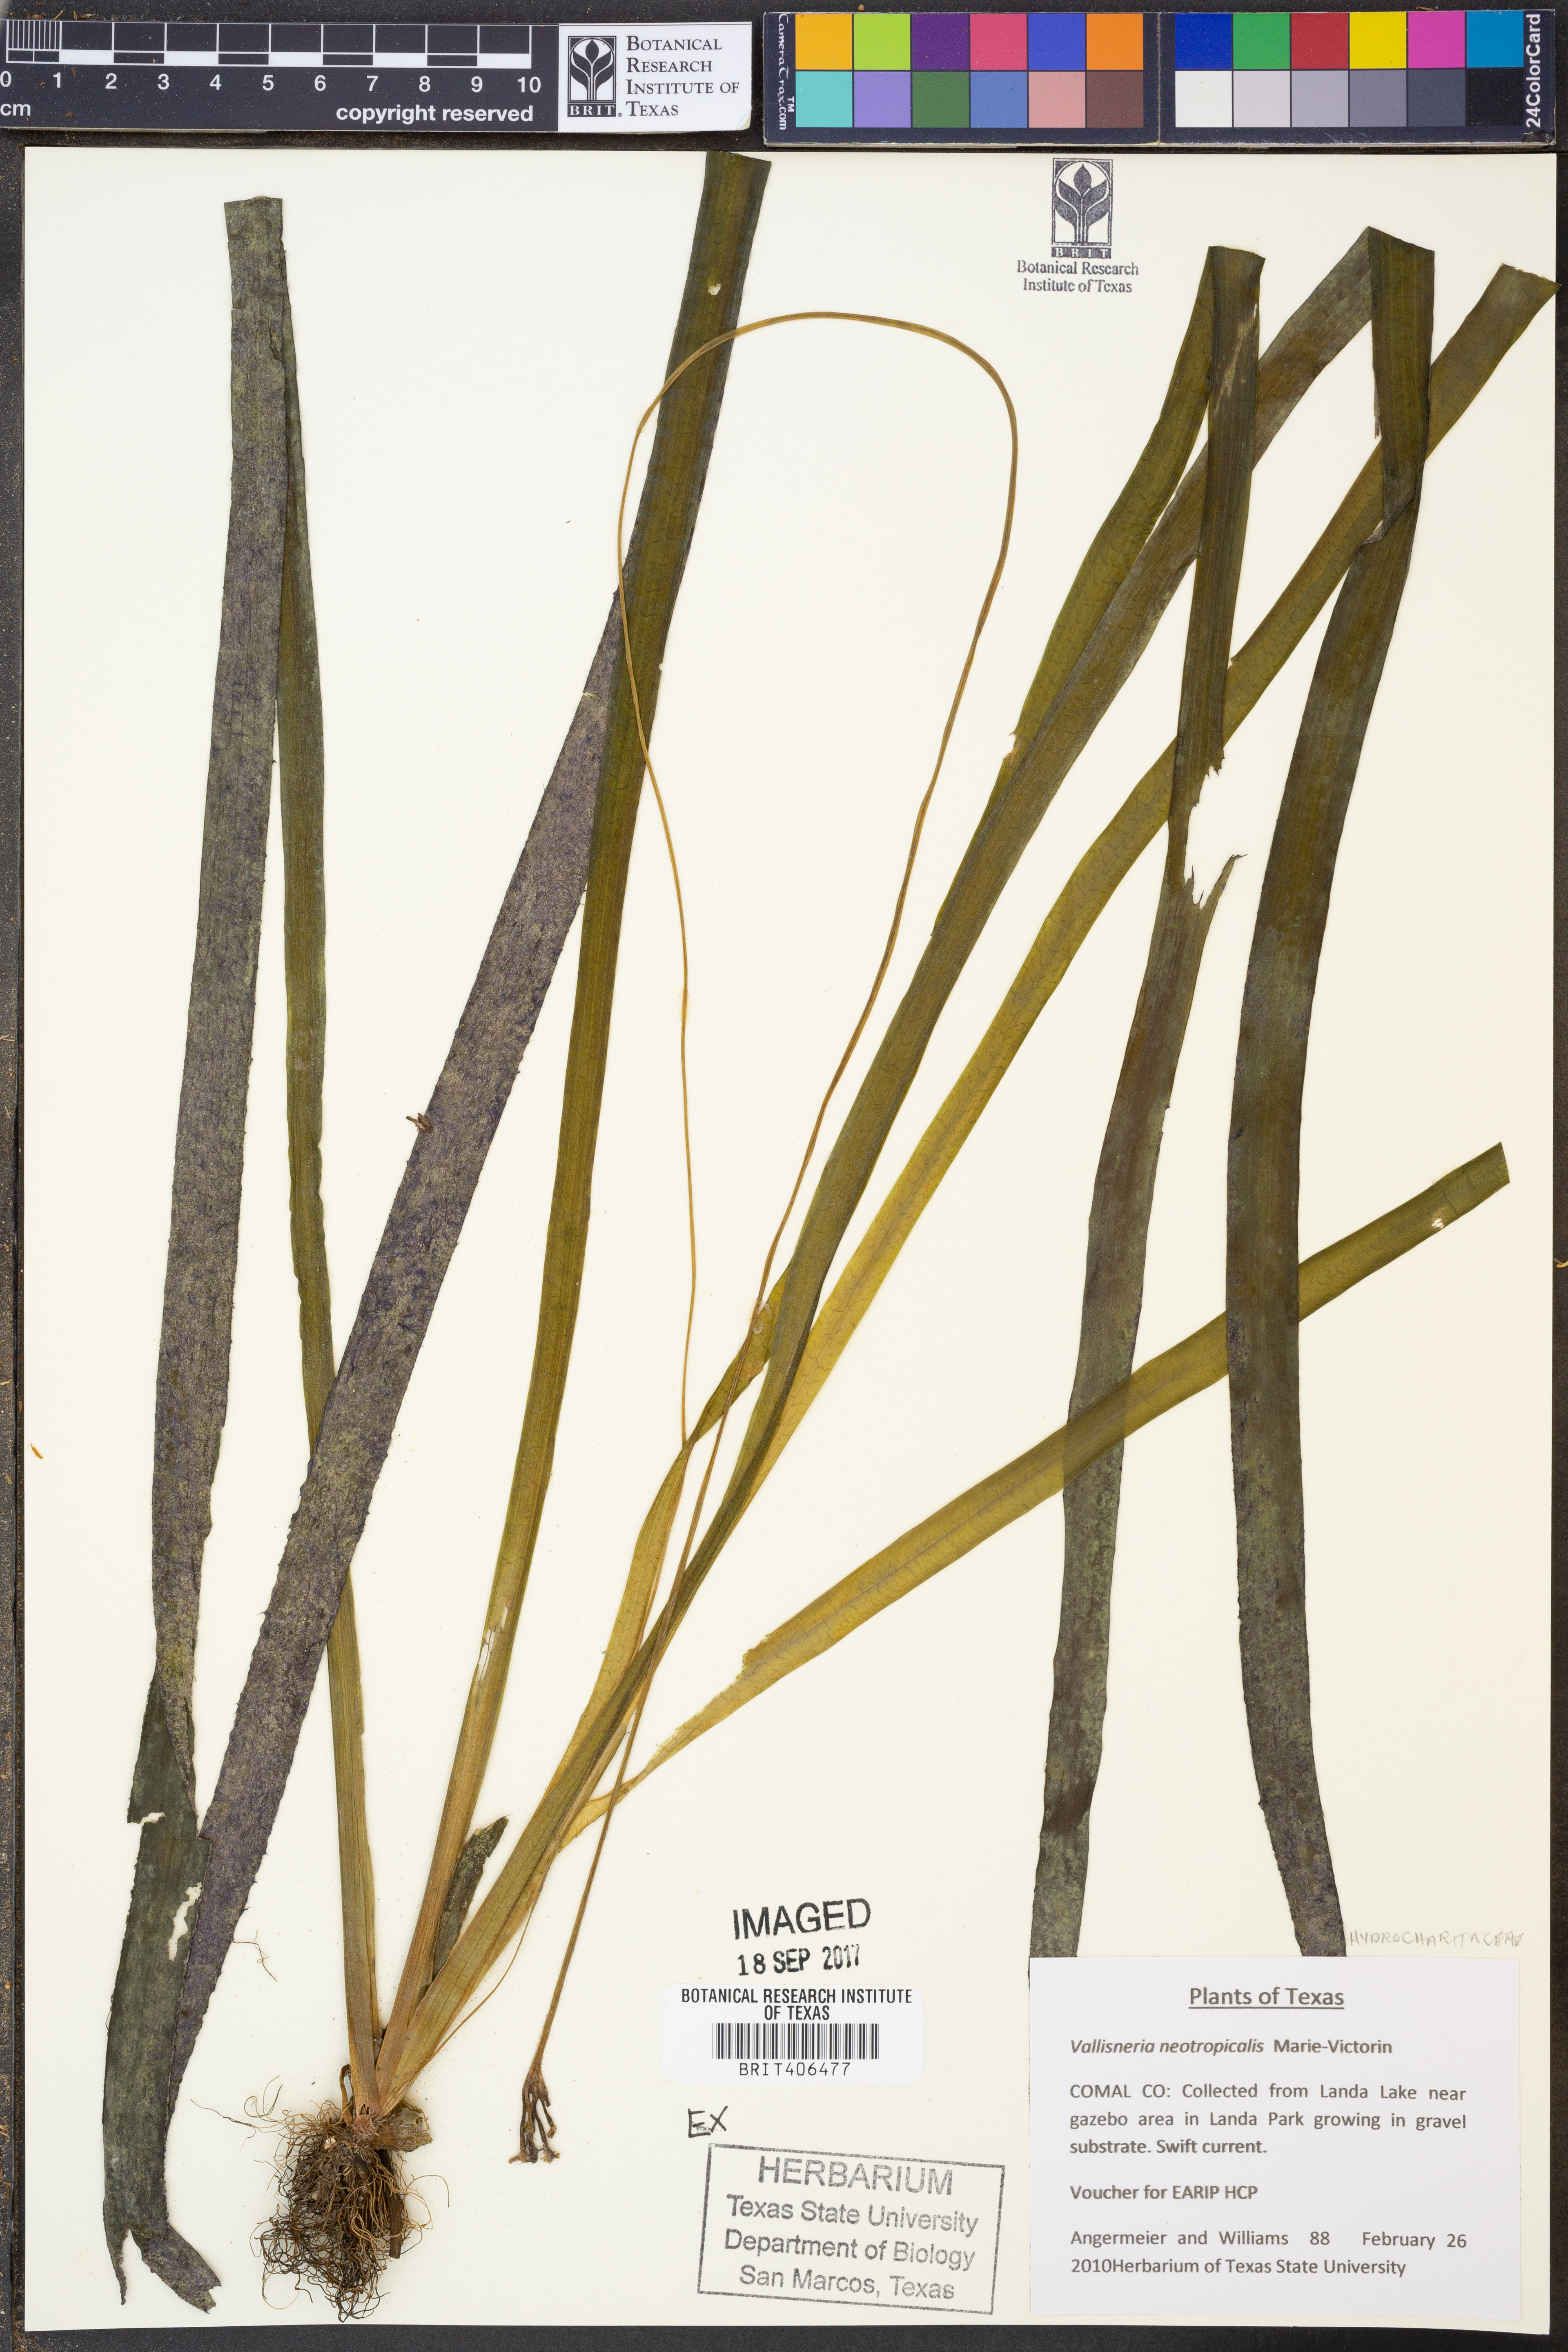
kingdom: Plantae
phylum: Tracheophyta
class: Liliopsida
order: Alismatales
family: Hydrocharitaceae
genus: Vallisneria
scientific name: Vallisneria americana
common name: American eelgrass
